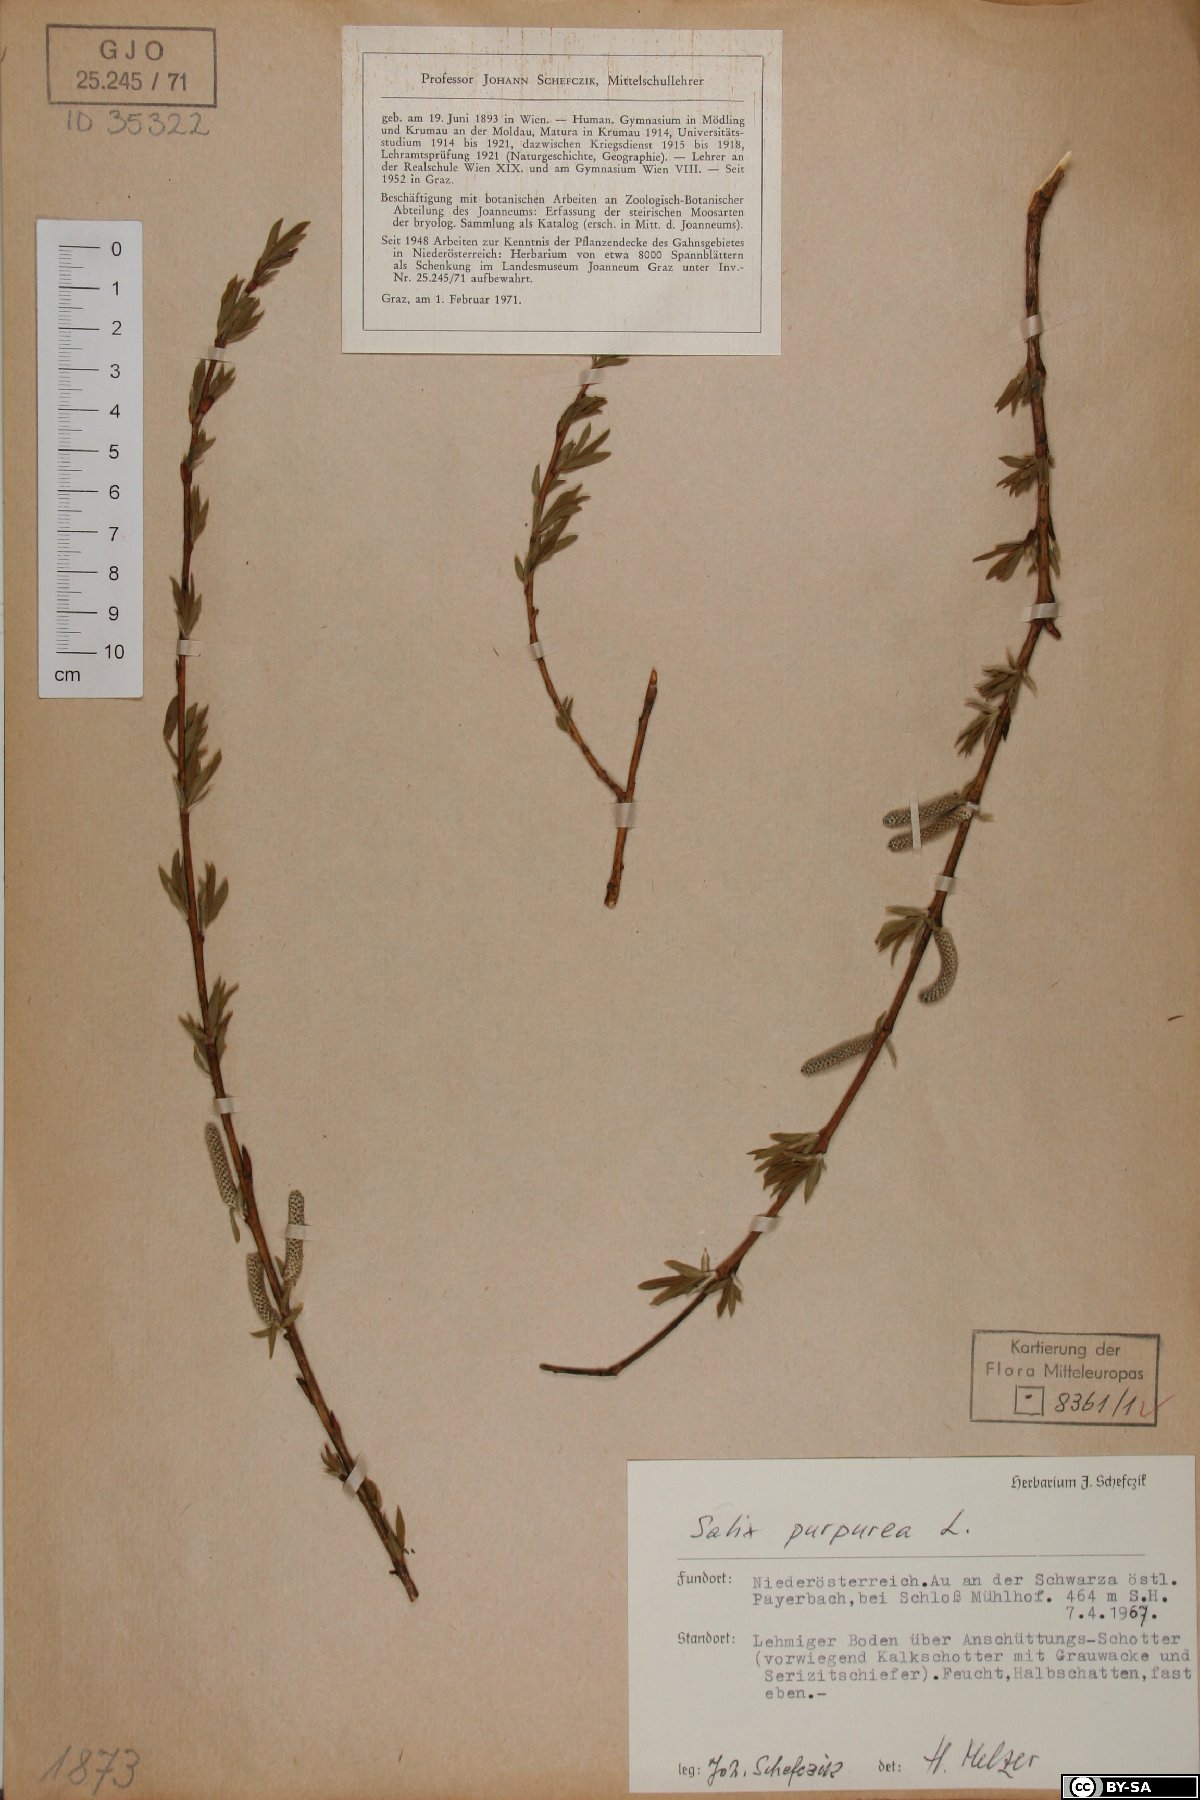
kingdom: Plantae
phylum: Tracheophyta
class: Magnoliopsida
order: Malpighiales
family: Salicaceae
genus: Salix
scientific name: Salix purpurea
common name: Purple willow
